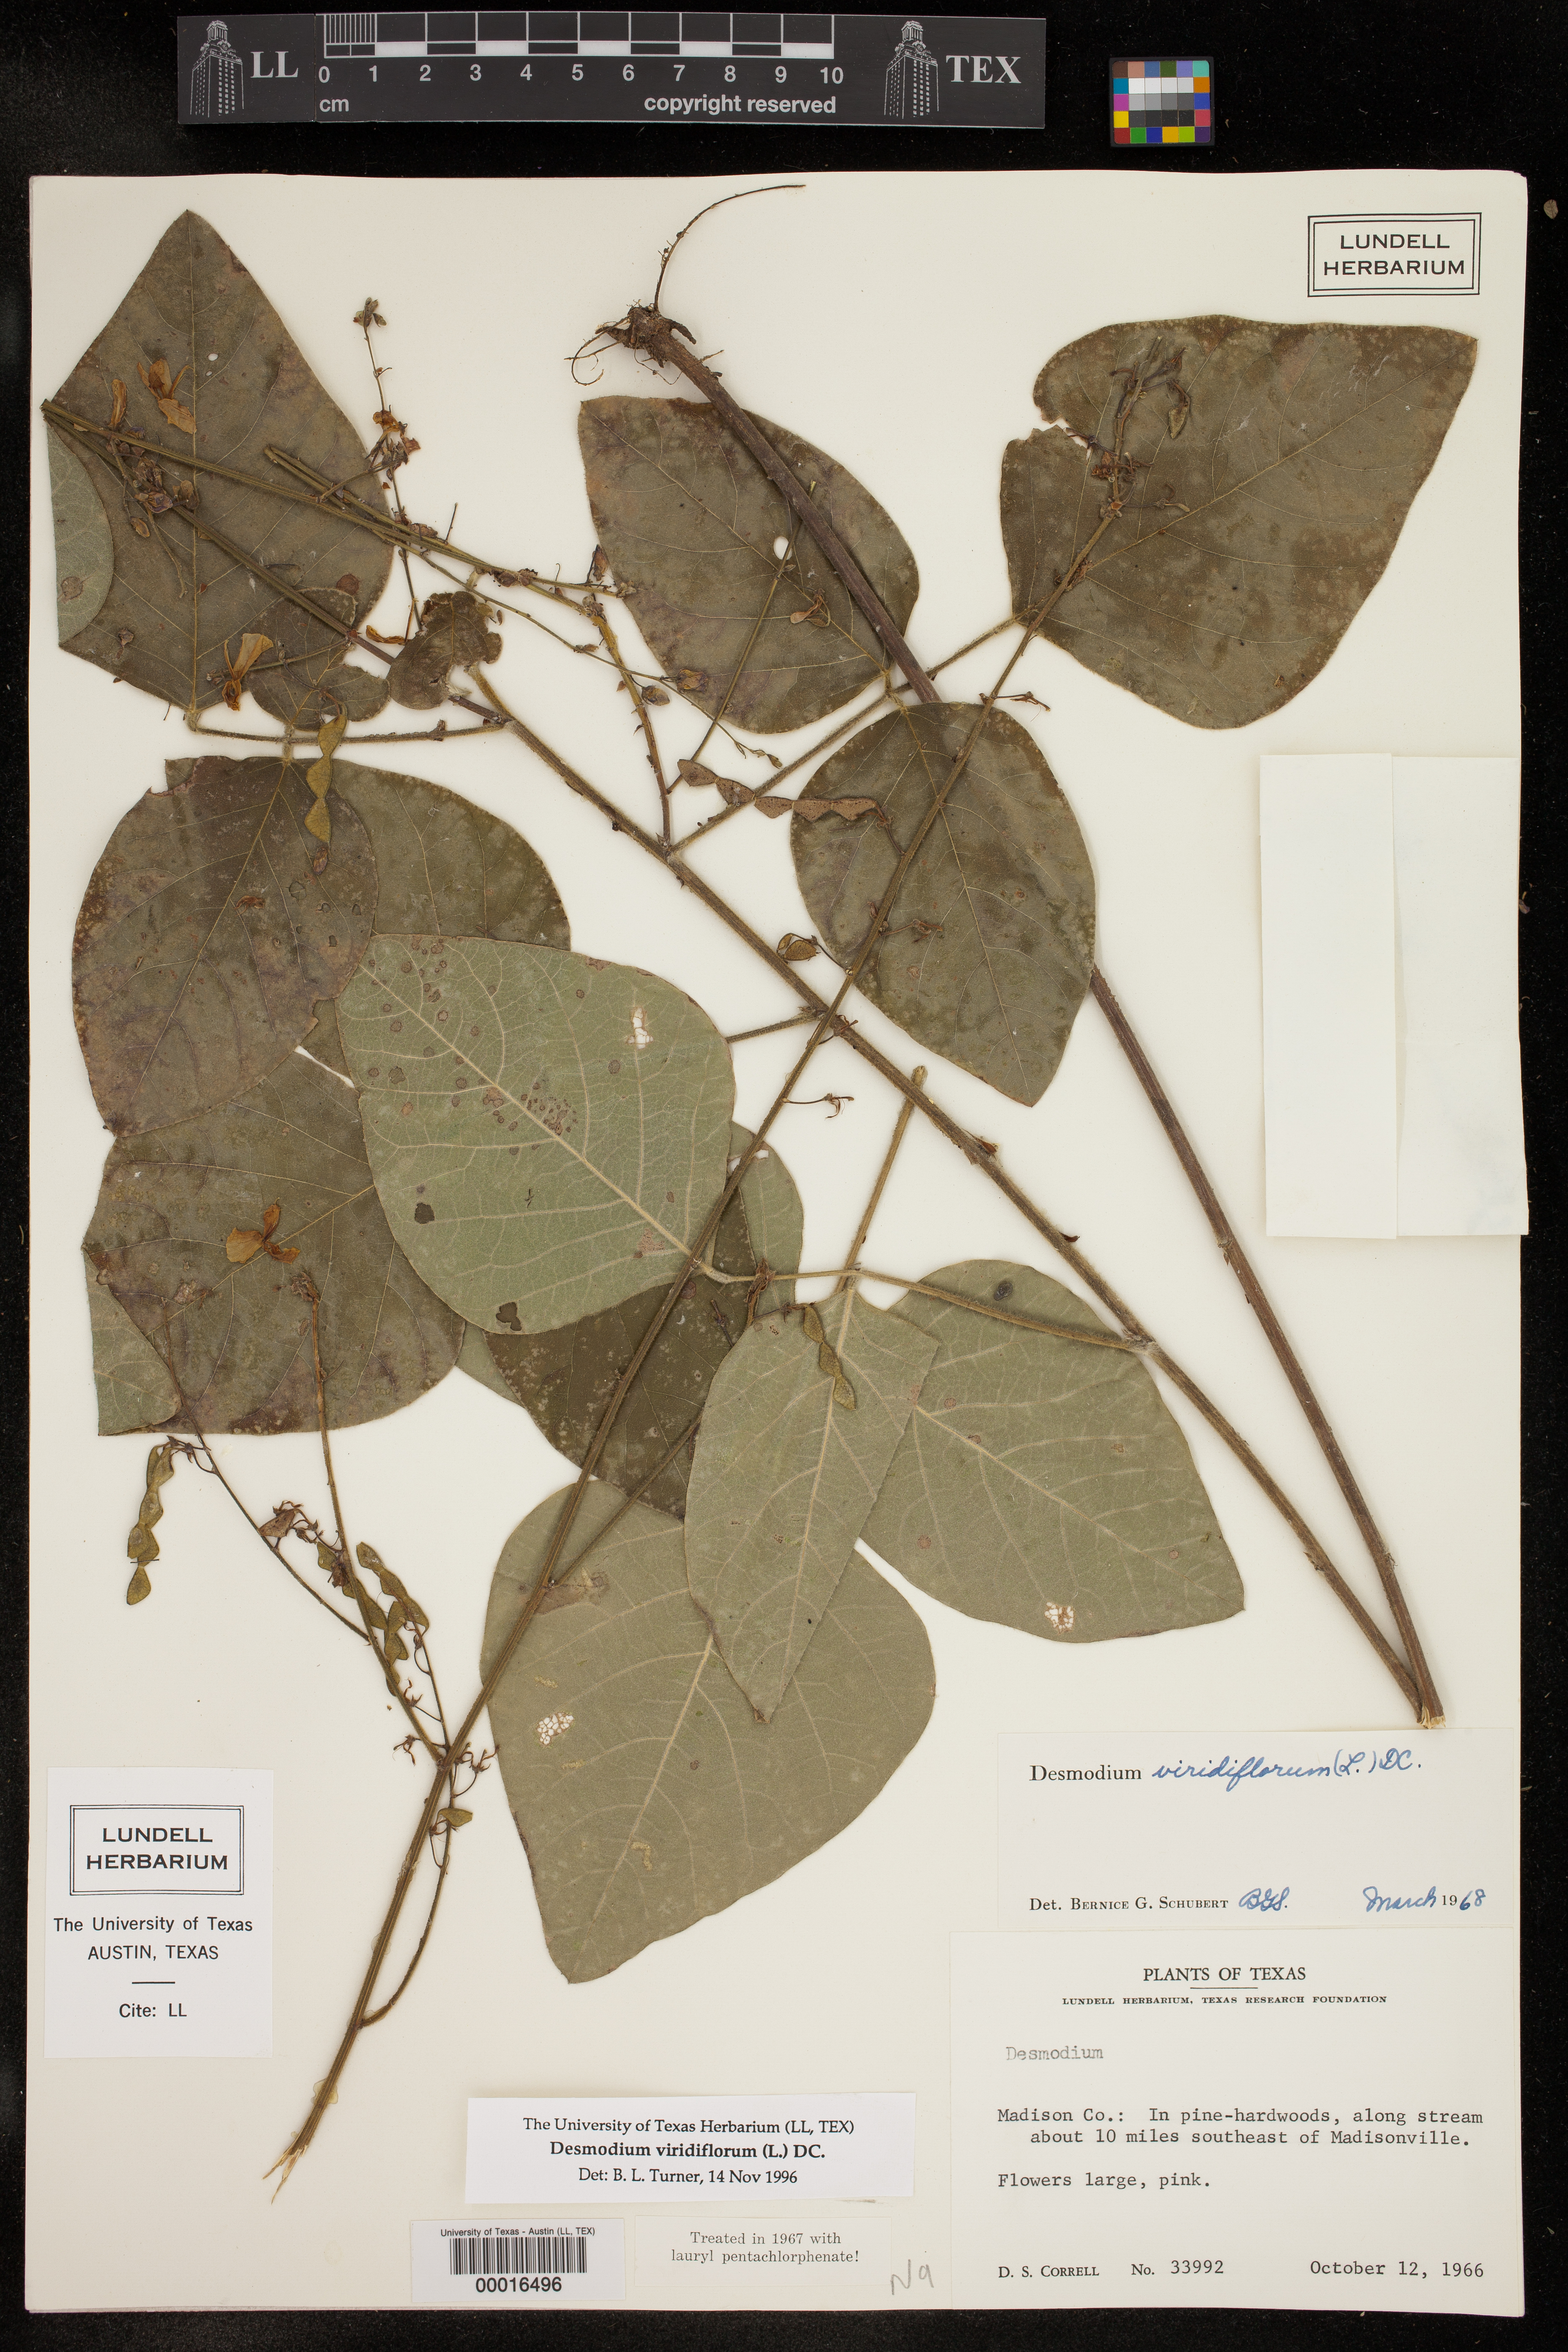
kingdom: Plantae
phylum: Tracheophyta
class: Magnoliopsida
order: Fabales
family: Fabaceae
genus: Desmodium
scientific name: Desmodium viridiflorum
